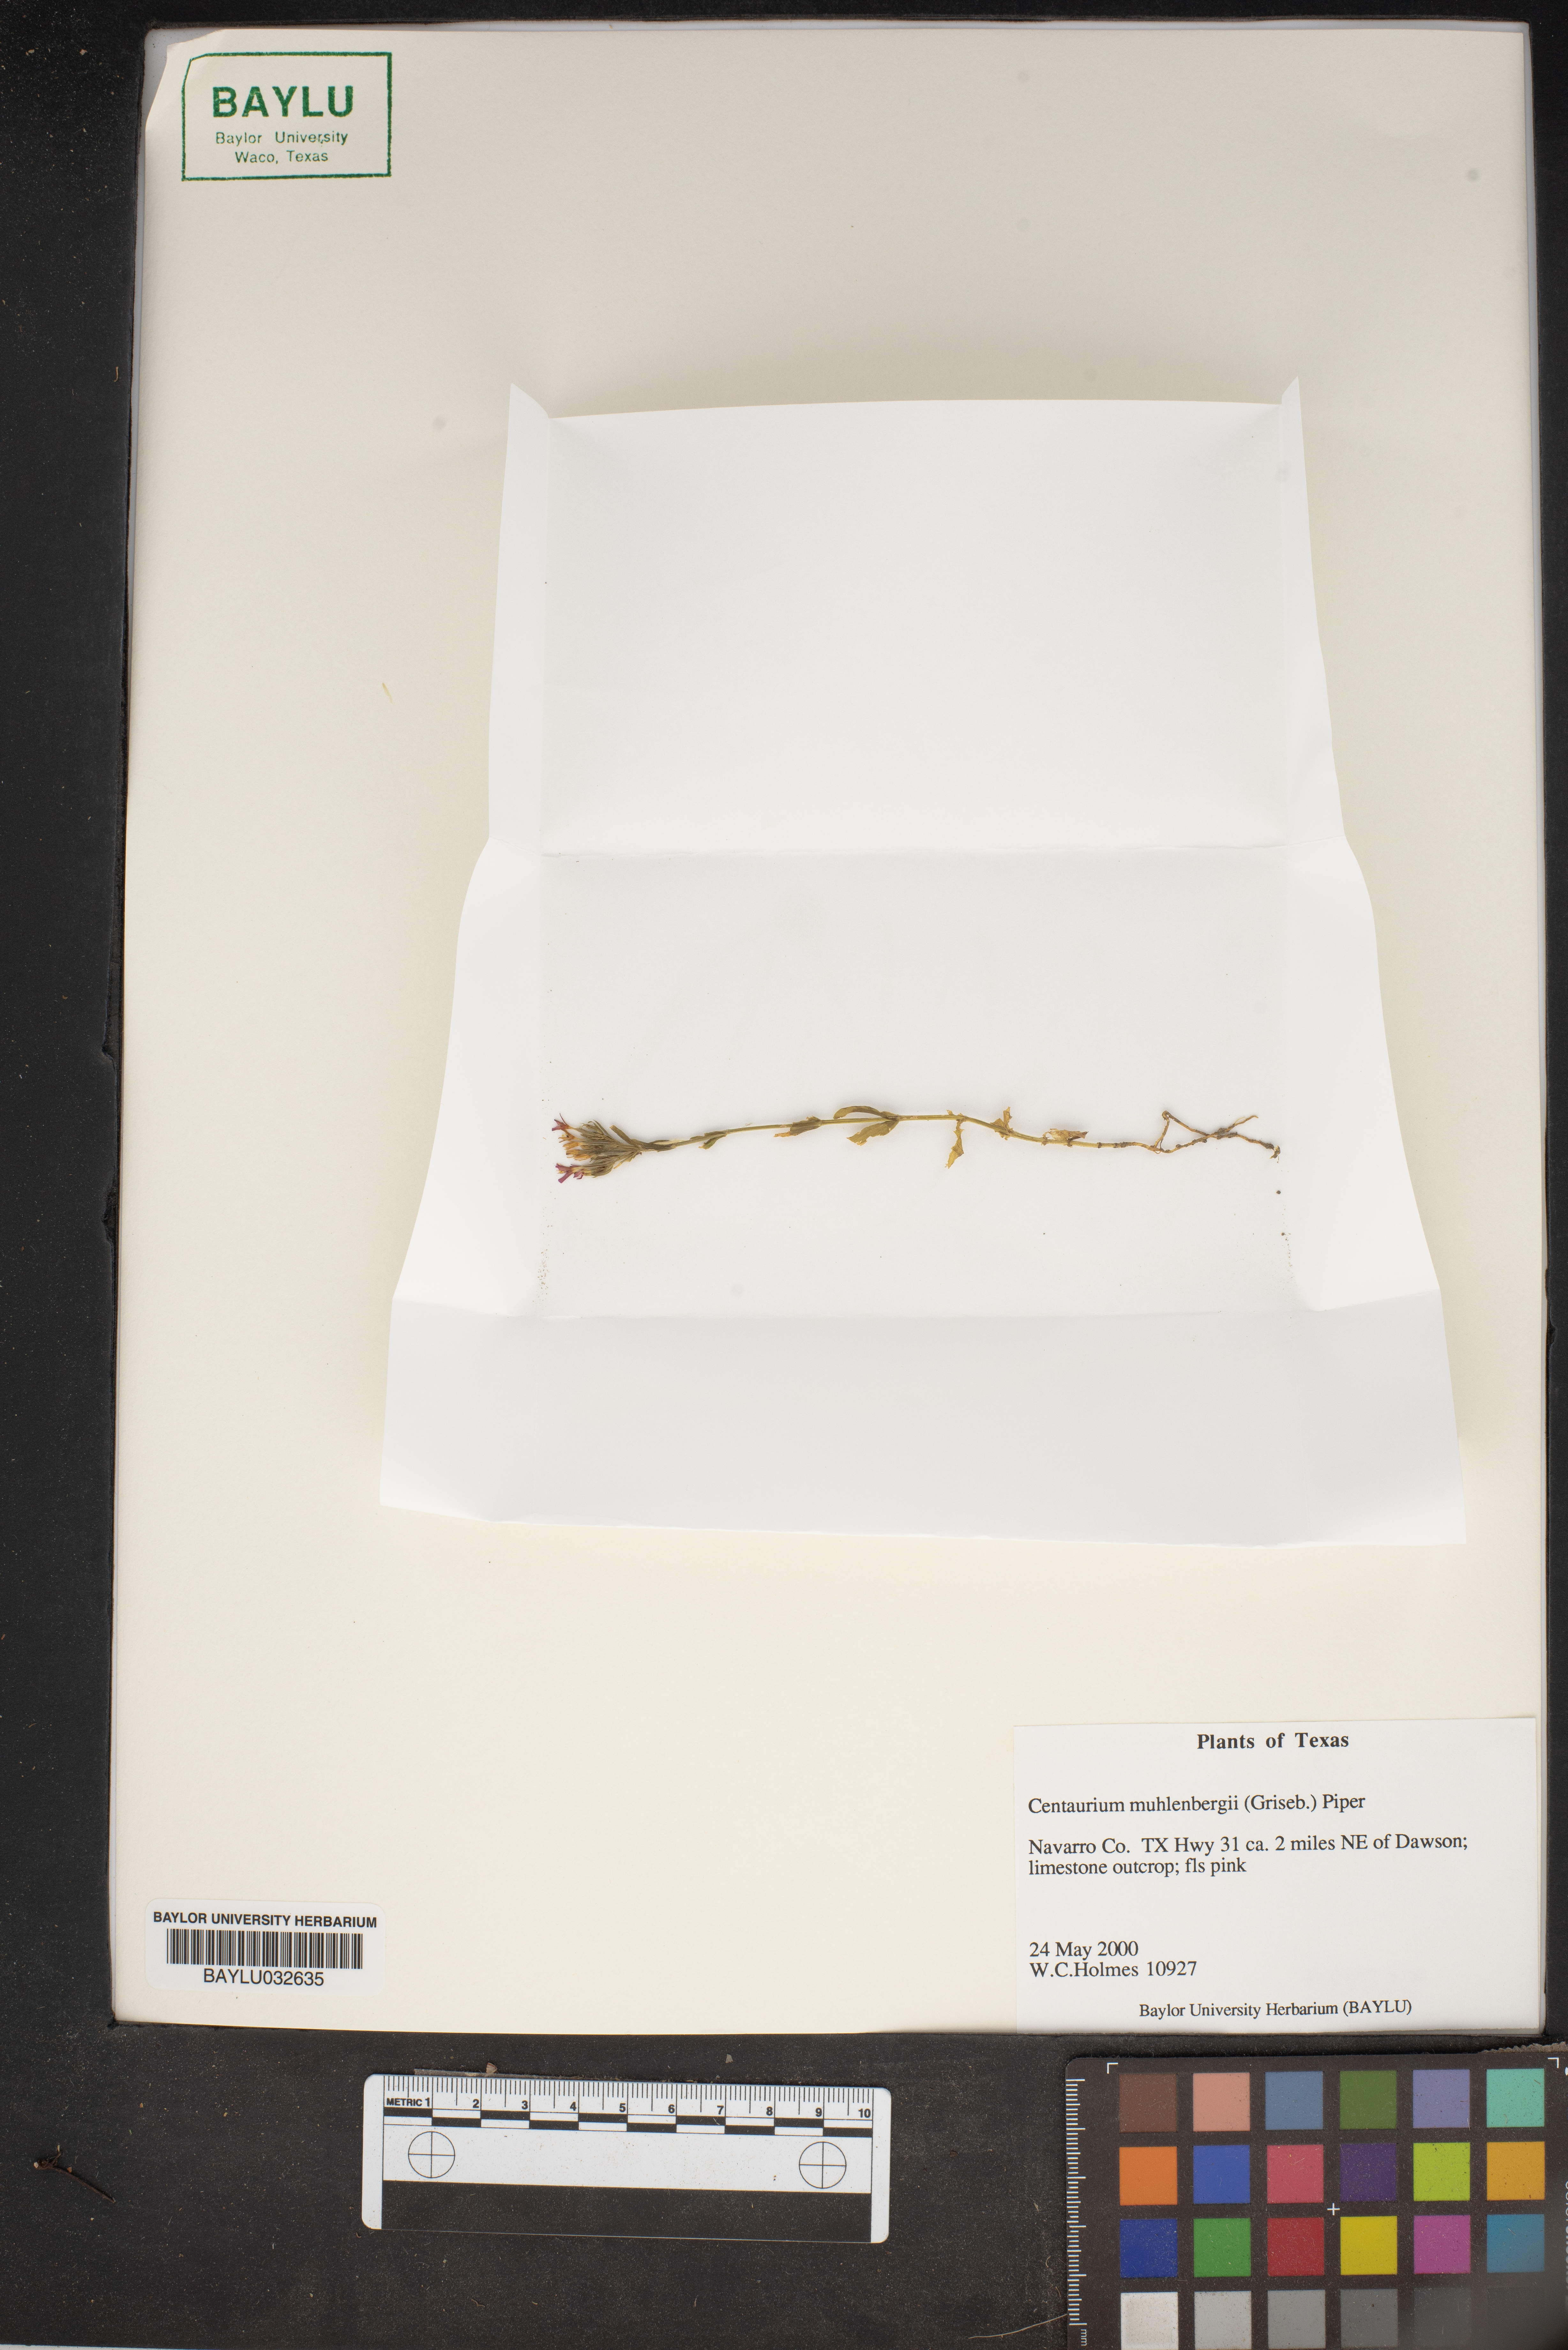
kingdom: Plantae
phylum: Tracheophyta
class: Magnoliopsida
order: Gentianales
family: Gentianaceae
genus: Zeltnera
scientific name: Zeltnera muhlenbergii
